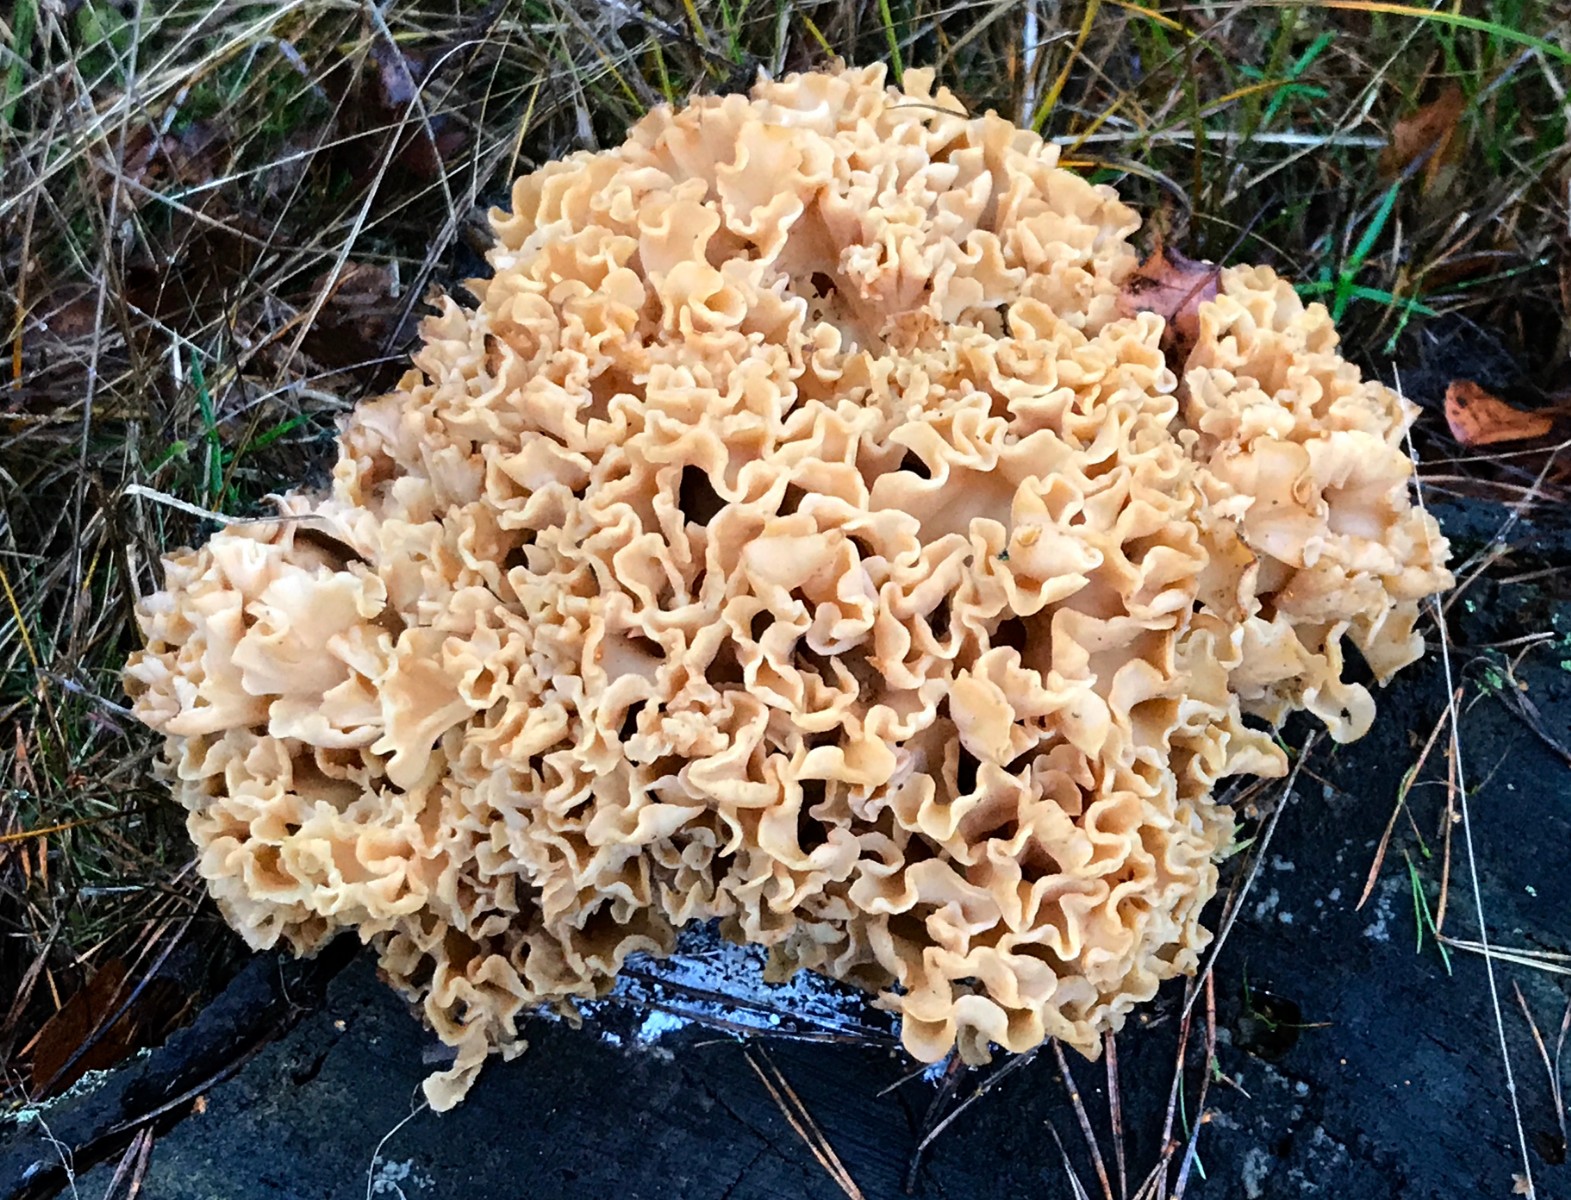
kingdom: Fungi
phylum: Basidiomycota
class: Agaricomycetes
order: Polyporales
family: Sparassidaceae
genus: Sparassis
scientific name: Sparassis crispa
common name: kruset blomkålssvamp
